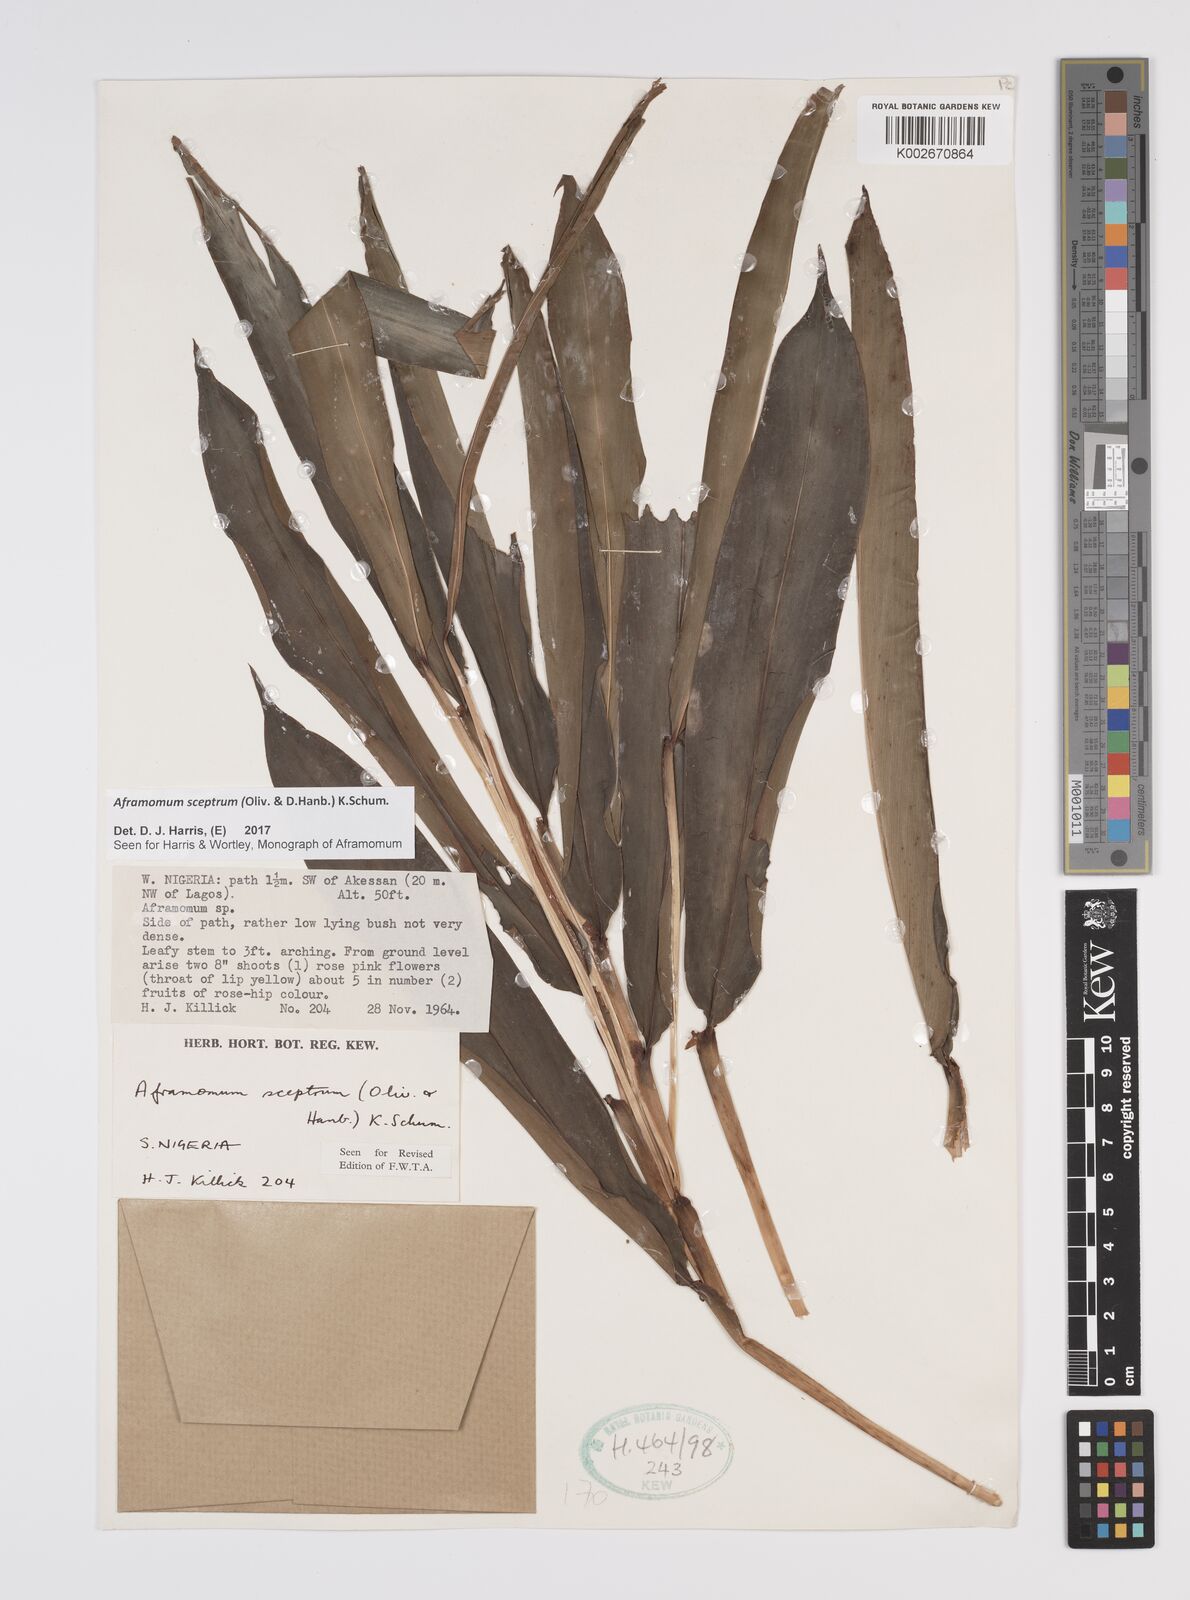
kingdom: Plantae
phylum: Tracheophyta
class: Liliopsida
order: Zingiberales
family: Zingiberaceae
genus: Aframomum
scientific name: Aframomum cereum
